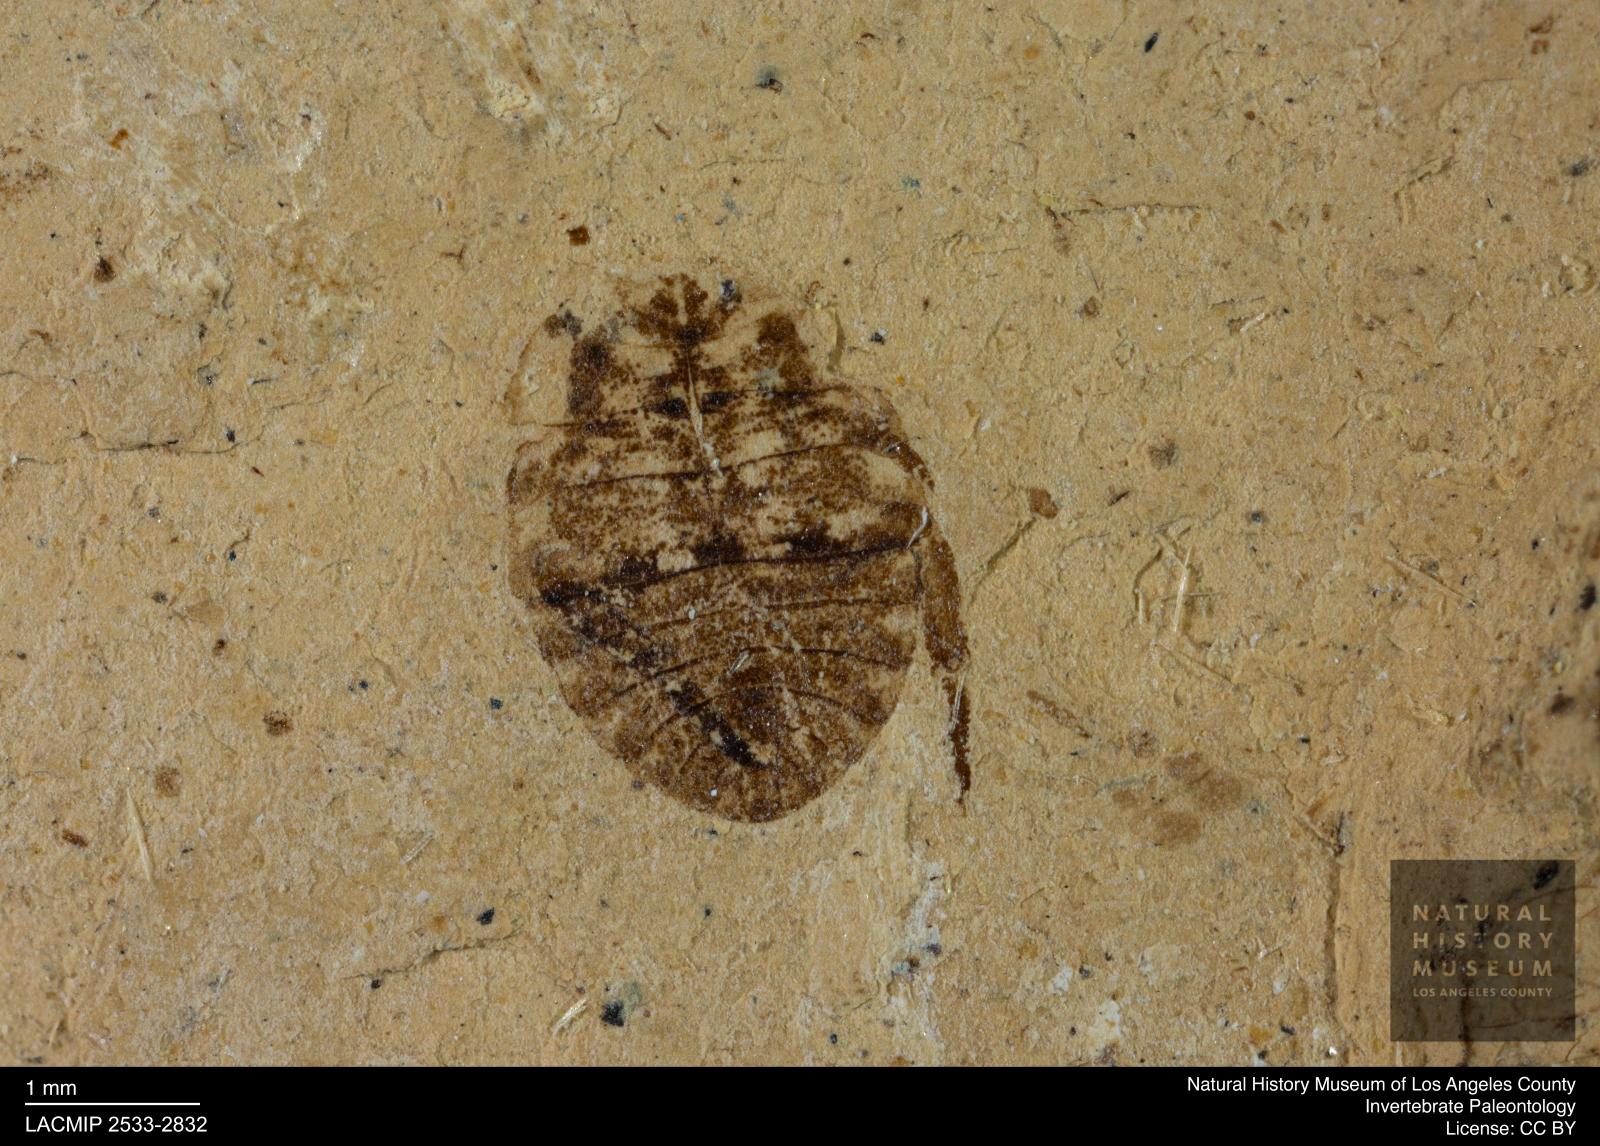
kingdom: Animalia
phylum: Arthropoda
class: Insecta
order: Hemiptera
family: Naucoridae
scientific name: Naucoridae
